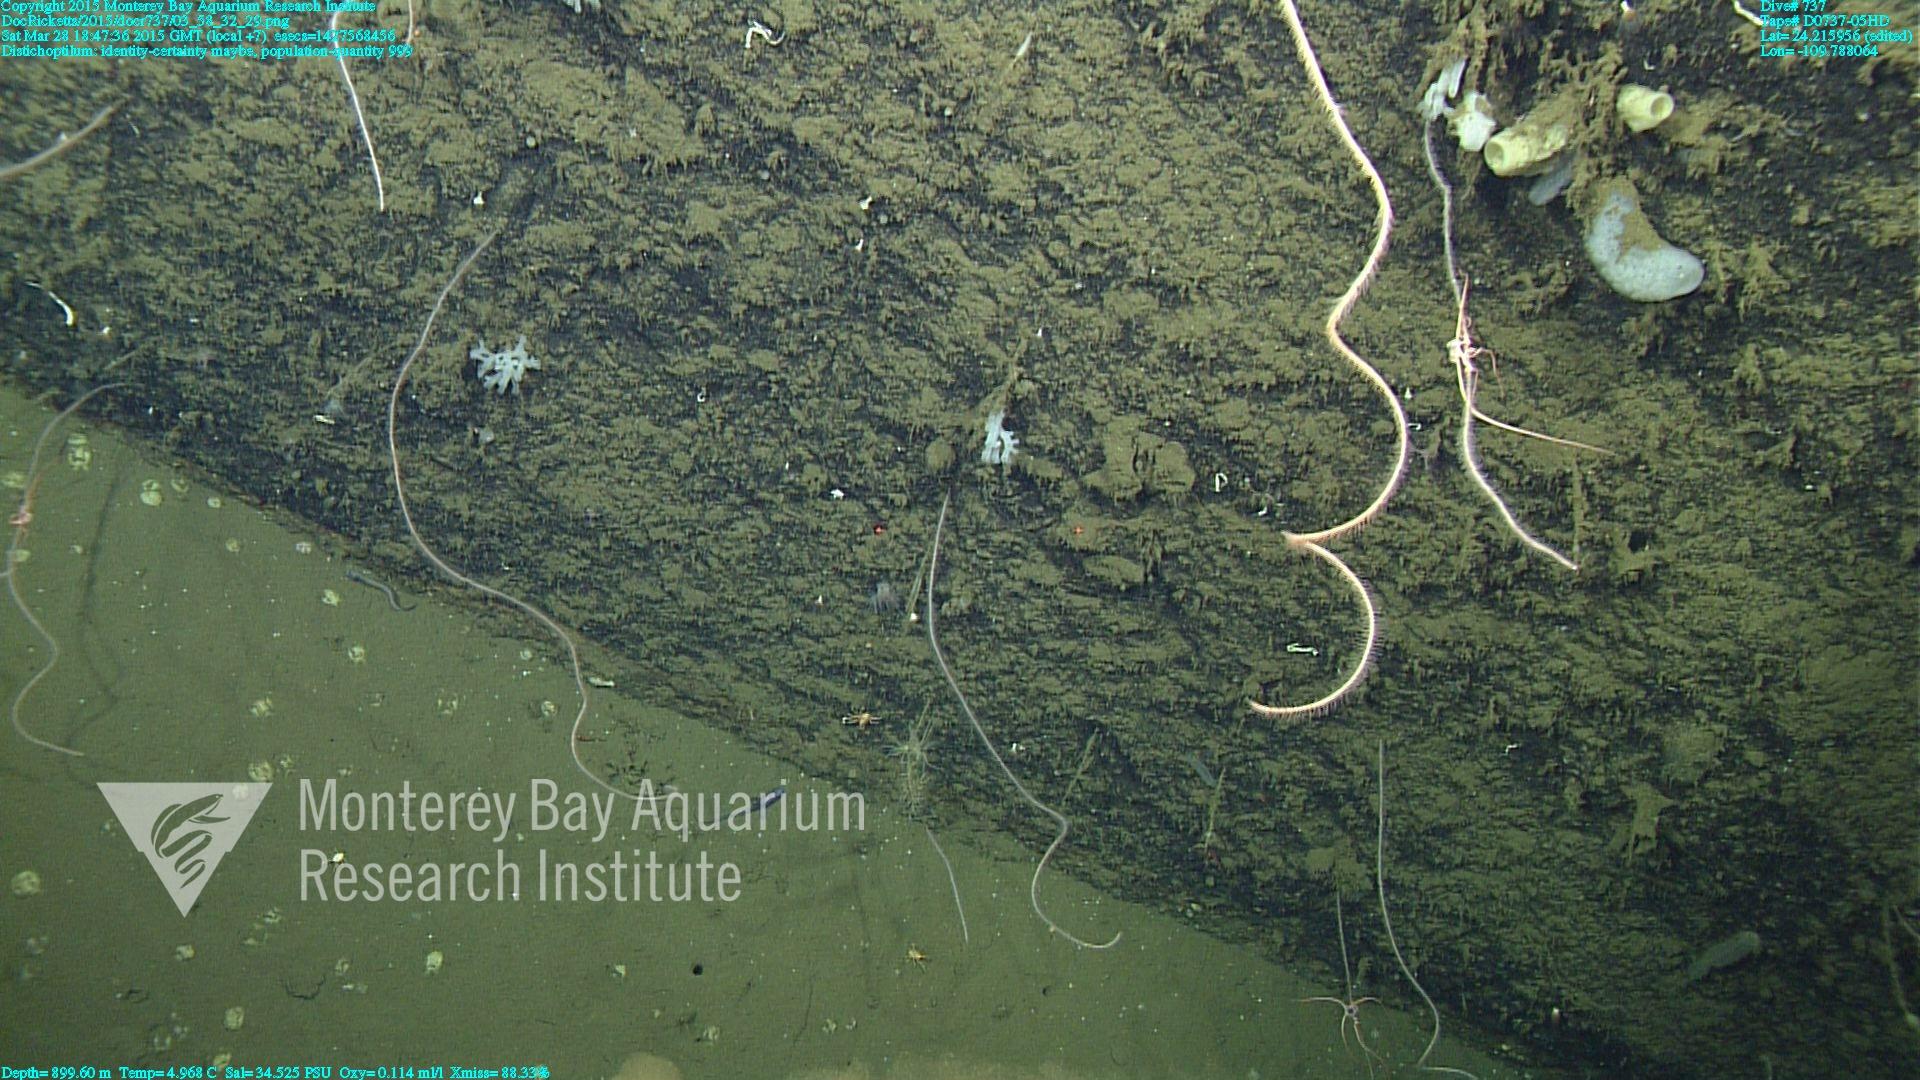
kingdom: Animalia
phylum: Cnidaria
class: Anthozoa
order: Scleralcyonacea
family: Protoptilidae
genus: Distichoptilum
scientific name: Distichoptilum
